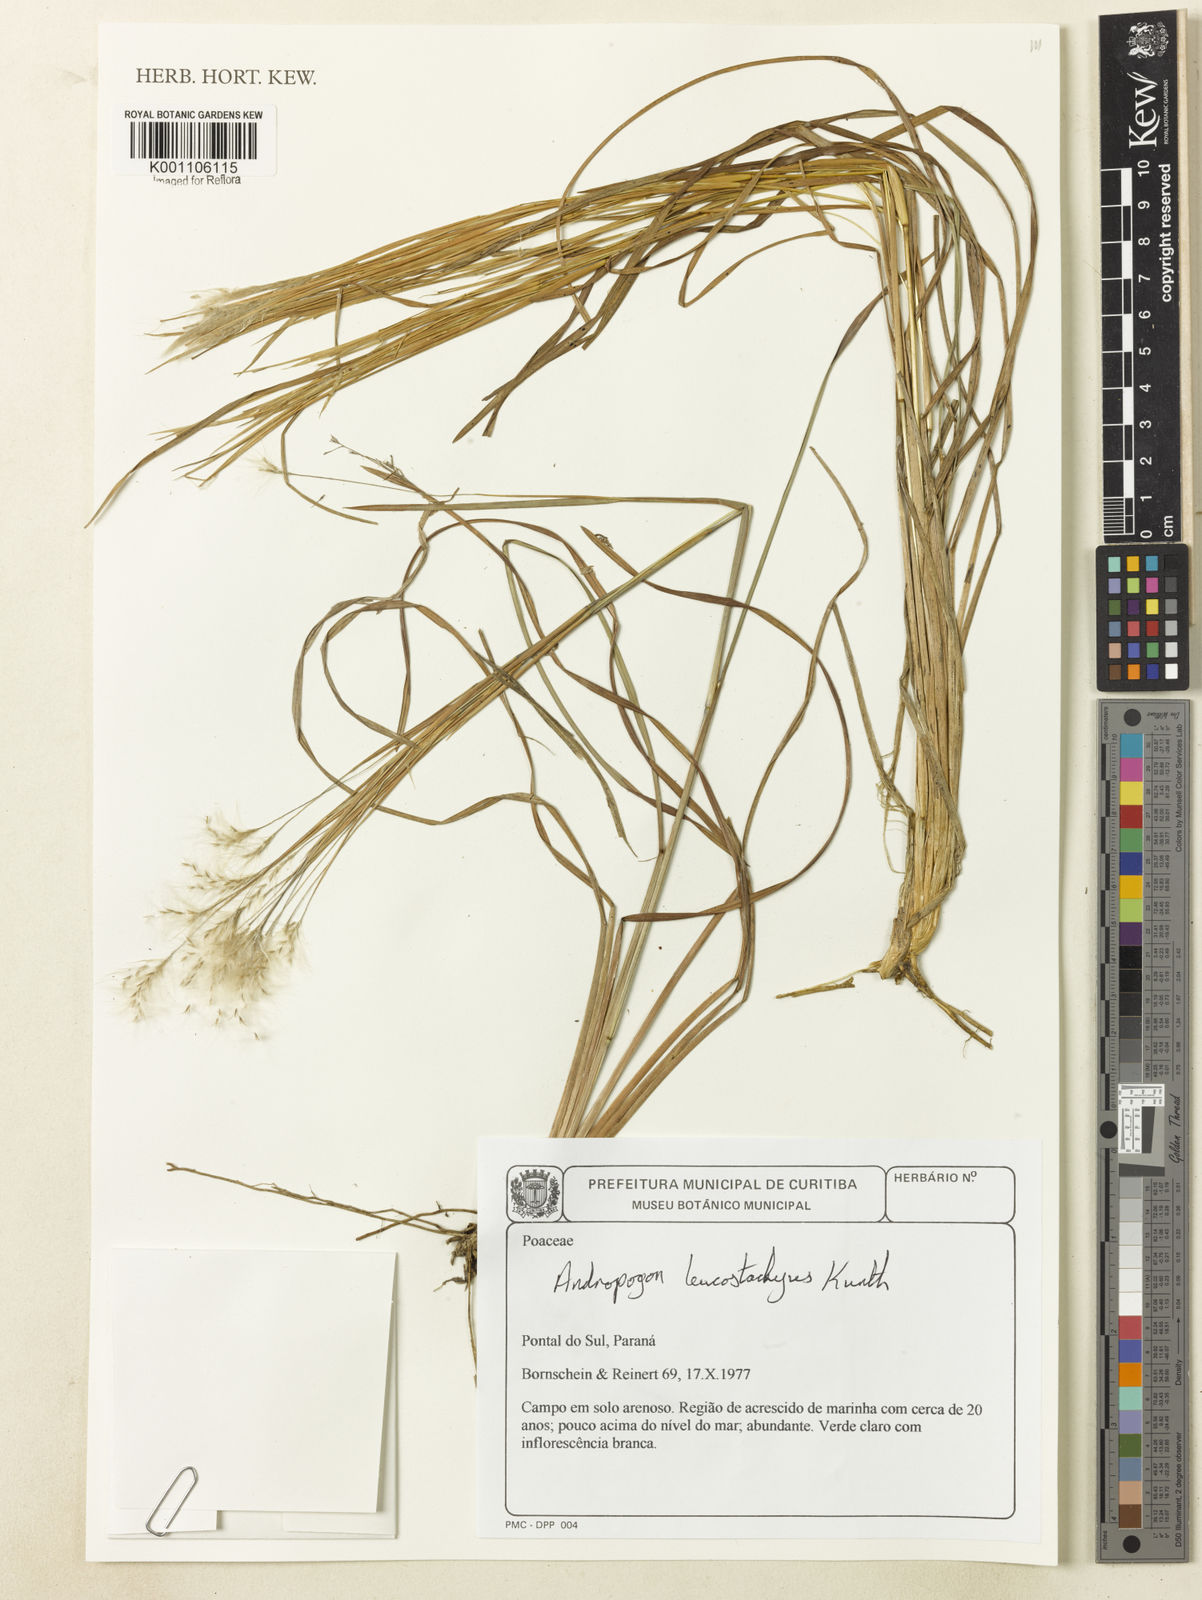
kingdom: Plantae
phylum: Tracheophyta
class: Liliopsida
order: Poales
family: Poaceae
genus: Andropogon
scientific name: Andropogon leucostachyus
